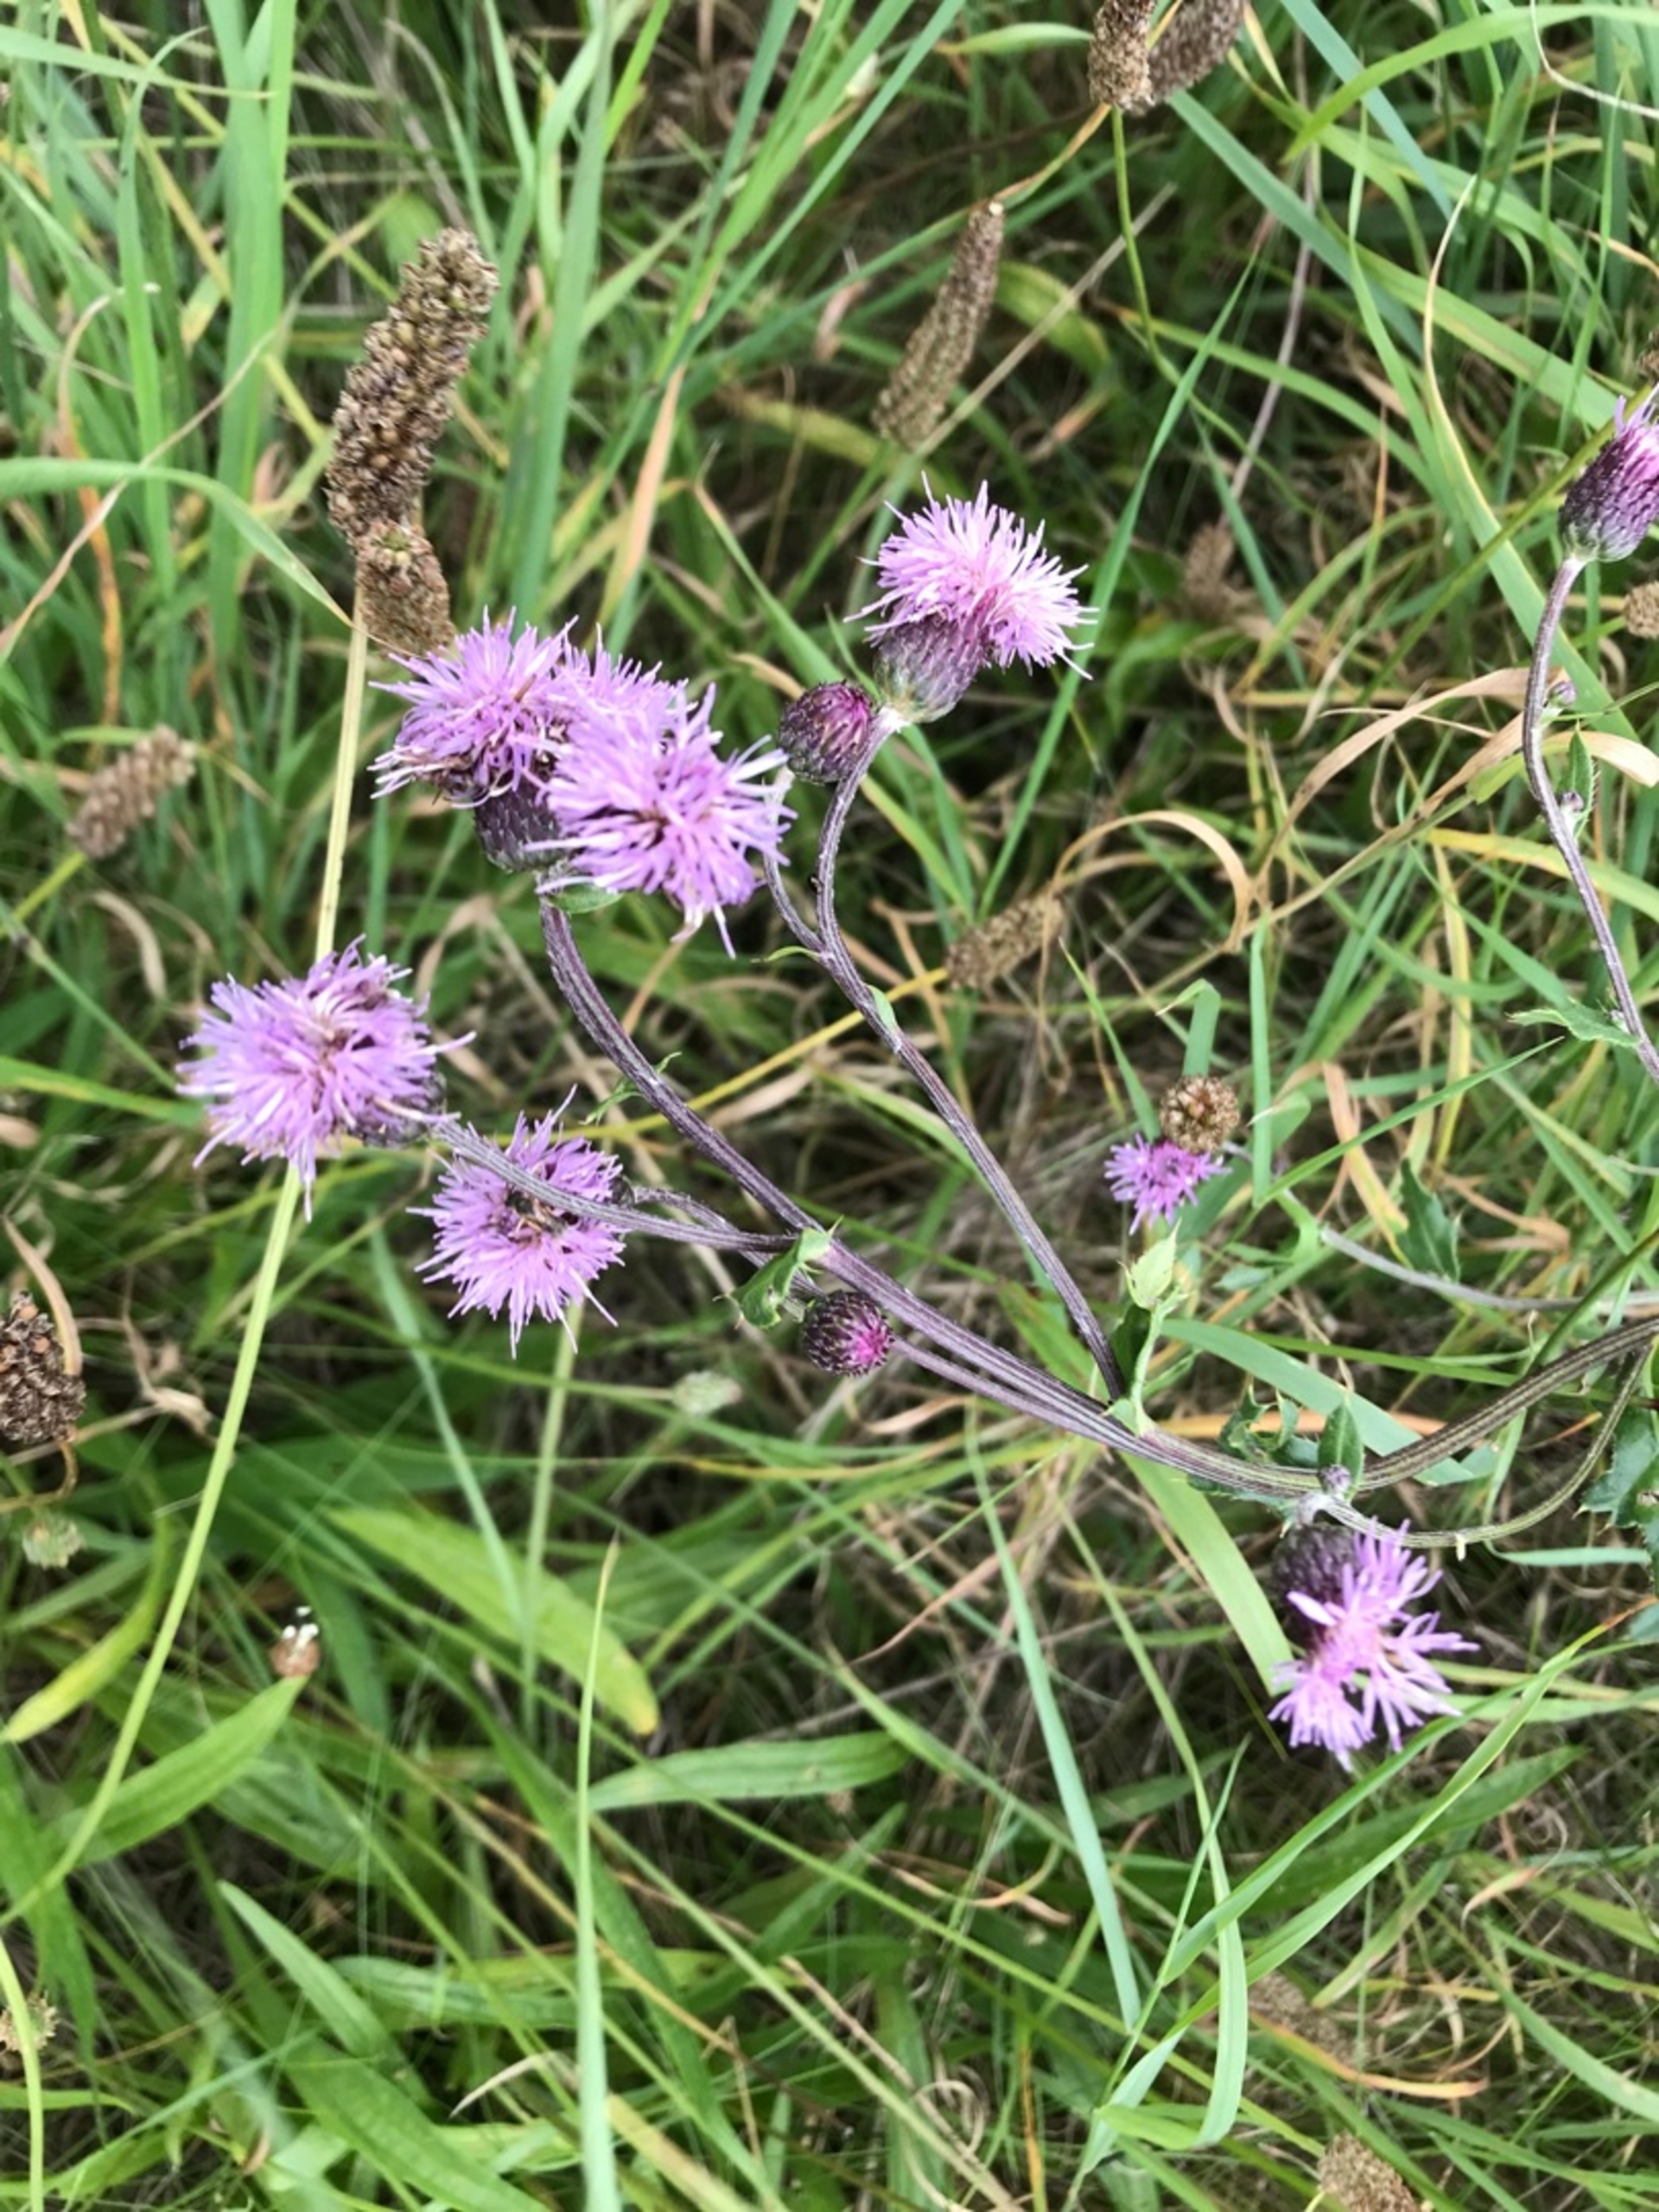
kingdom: Plantae
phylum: Tracheophyta
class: Magnoliopsida
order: Asterales
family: Asteraceae
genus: Cirsium
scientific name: Cirsium arvense
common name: Ager-tidsel
